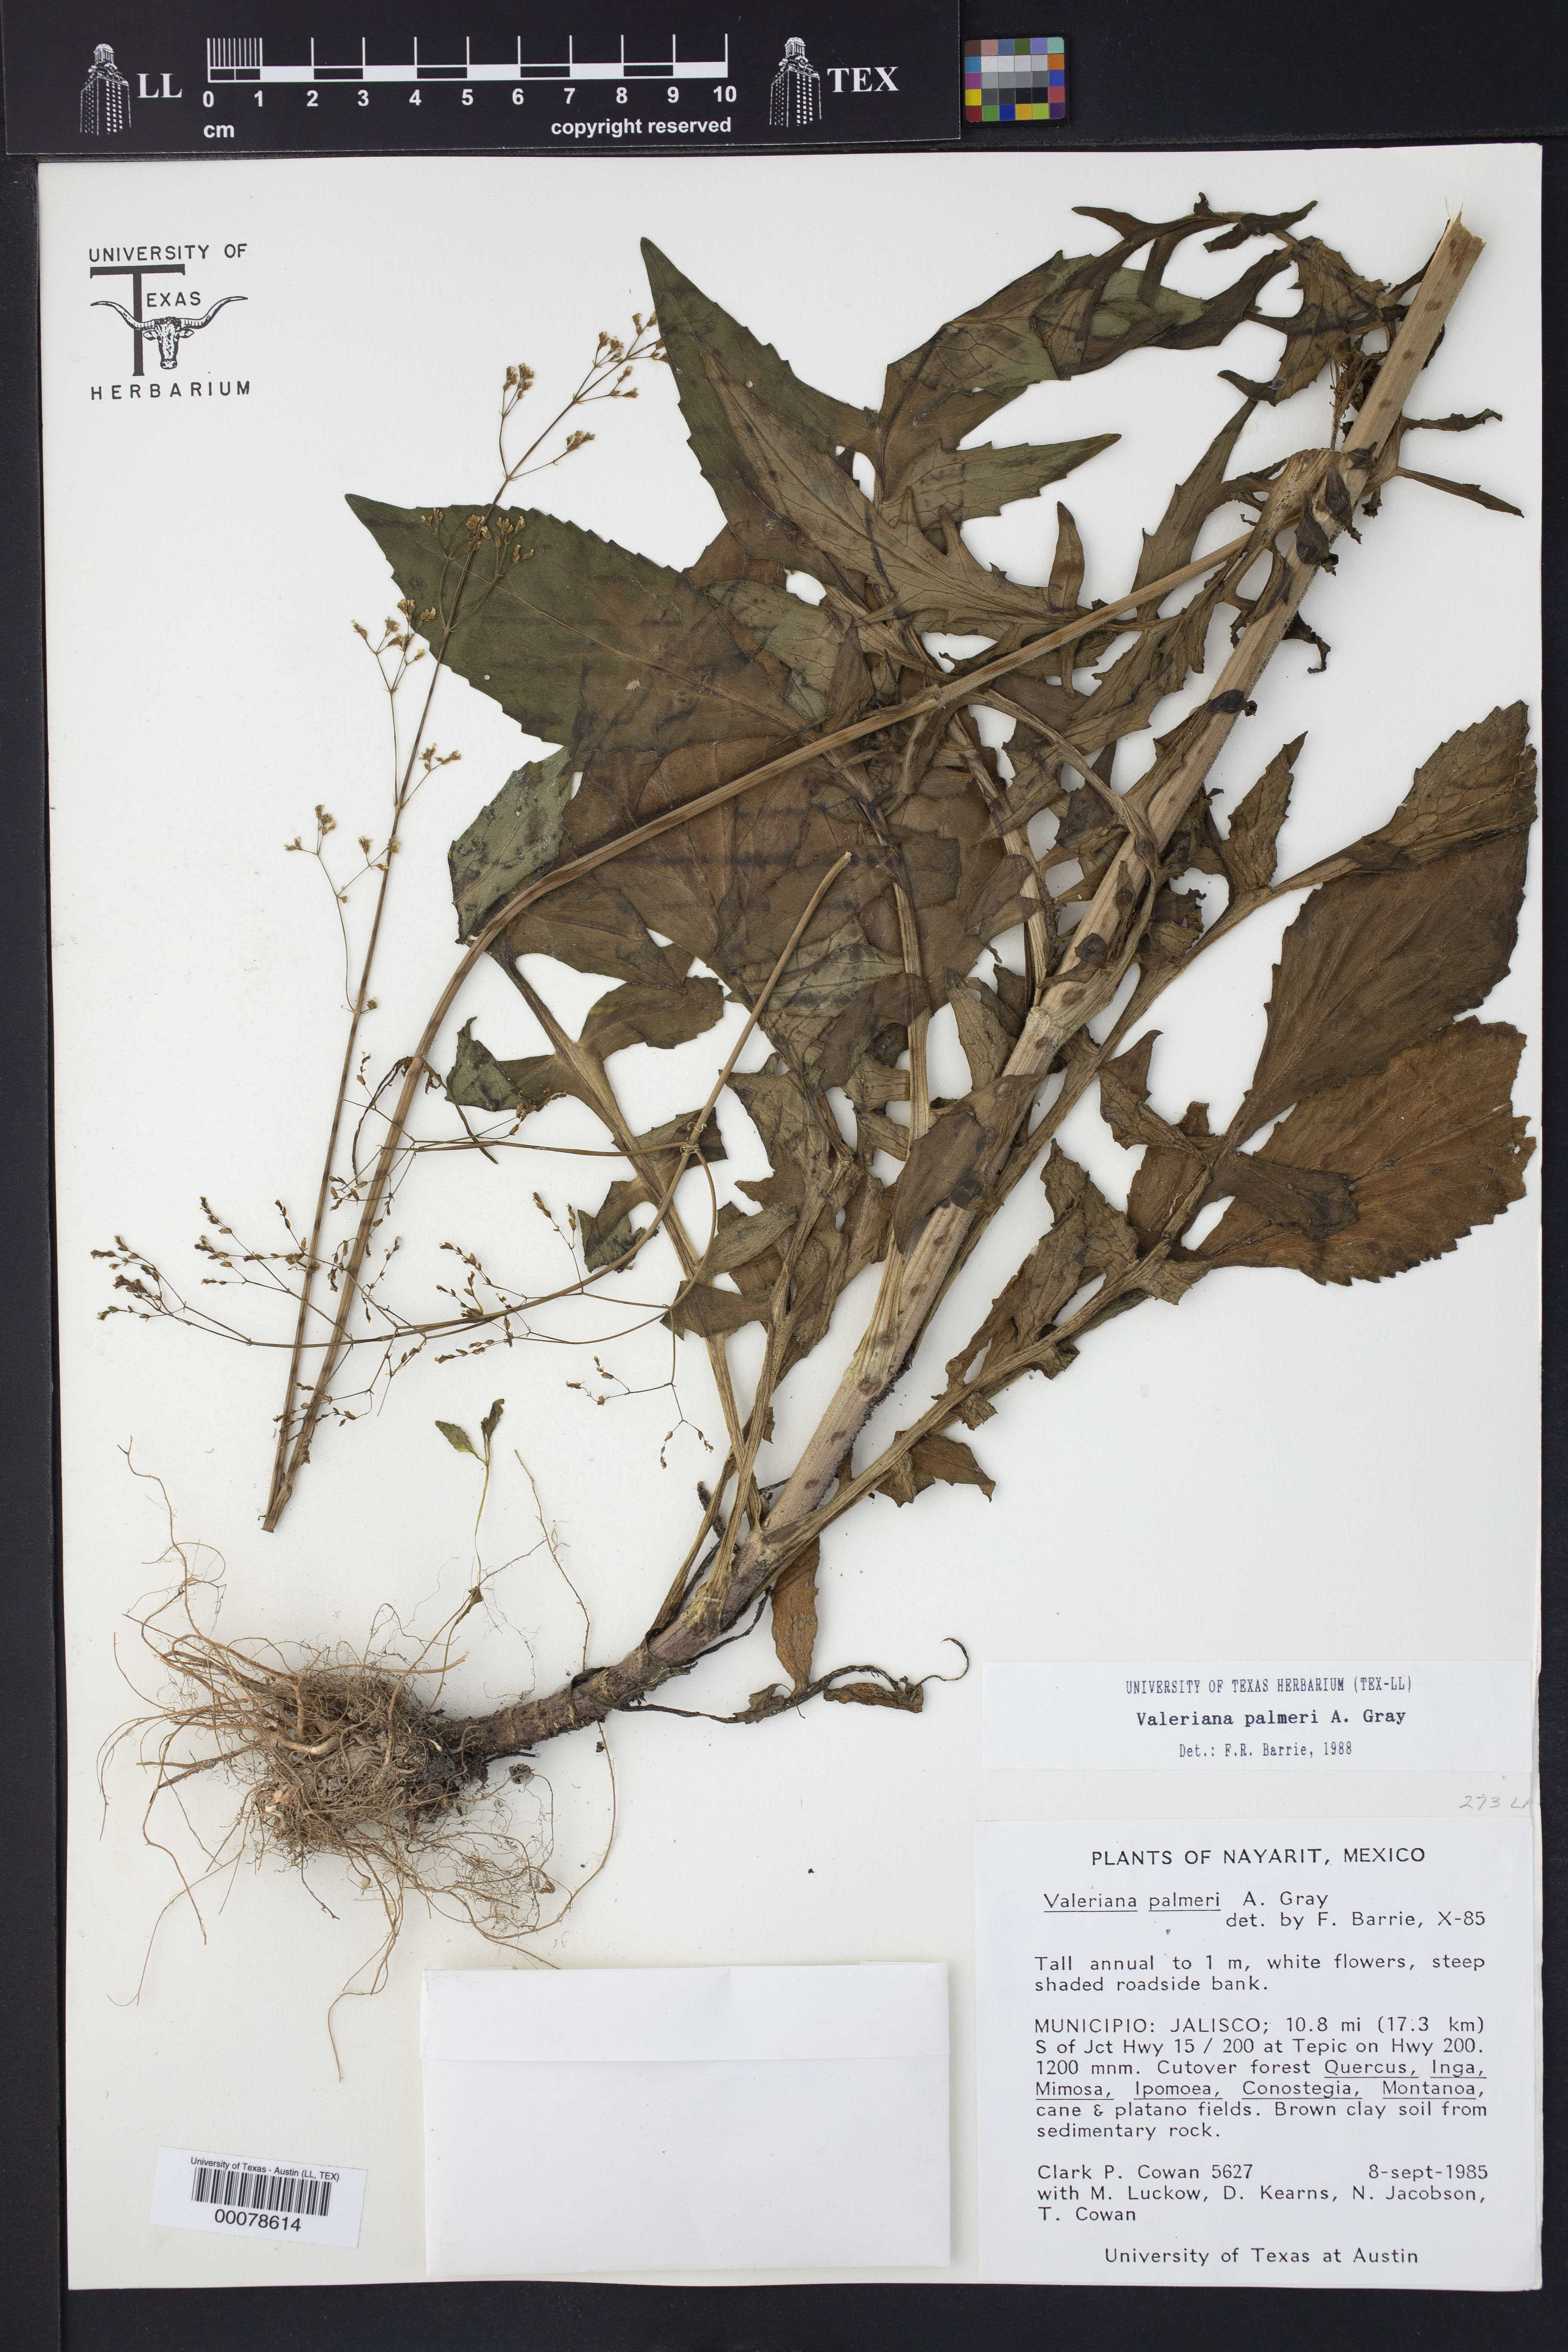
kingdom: Plantae
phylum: Tracheophyta
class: Magnoliopsida
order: Dipsacales
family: Caprifoliaceae
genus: Valeriana
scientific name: Valeriana palmeri
